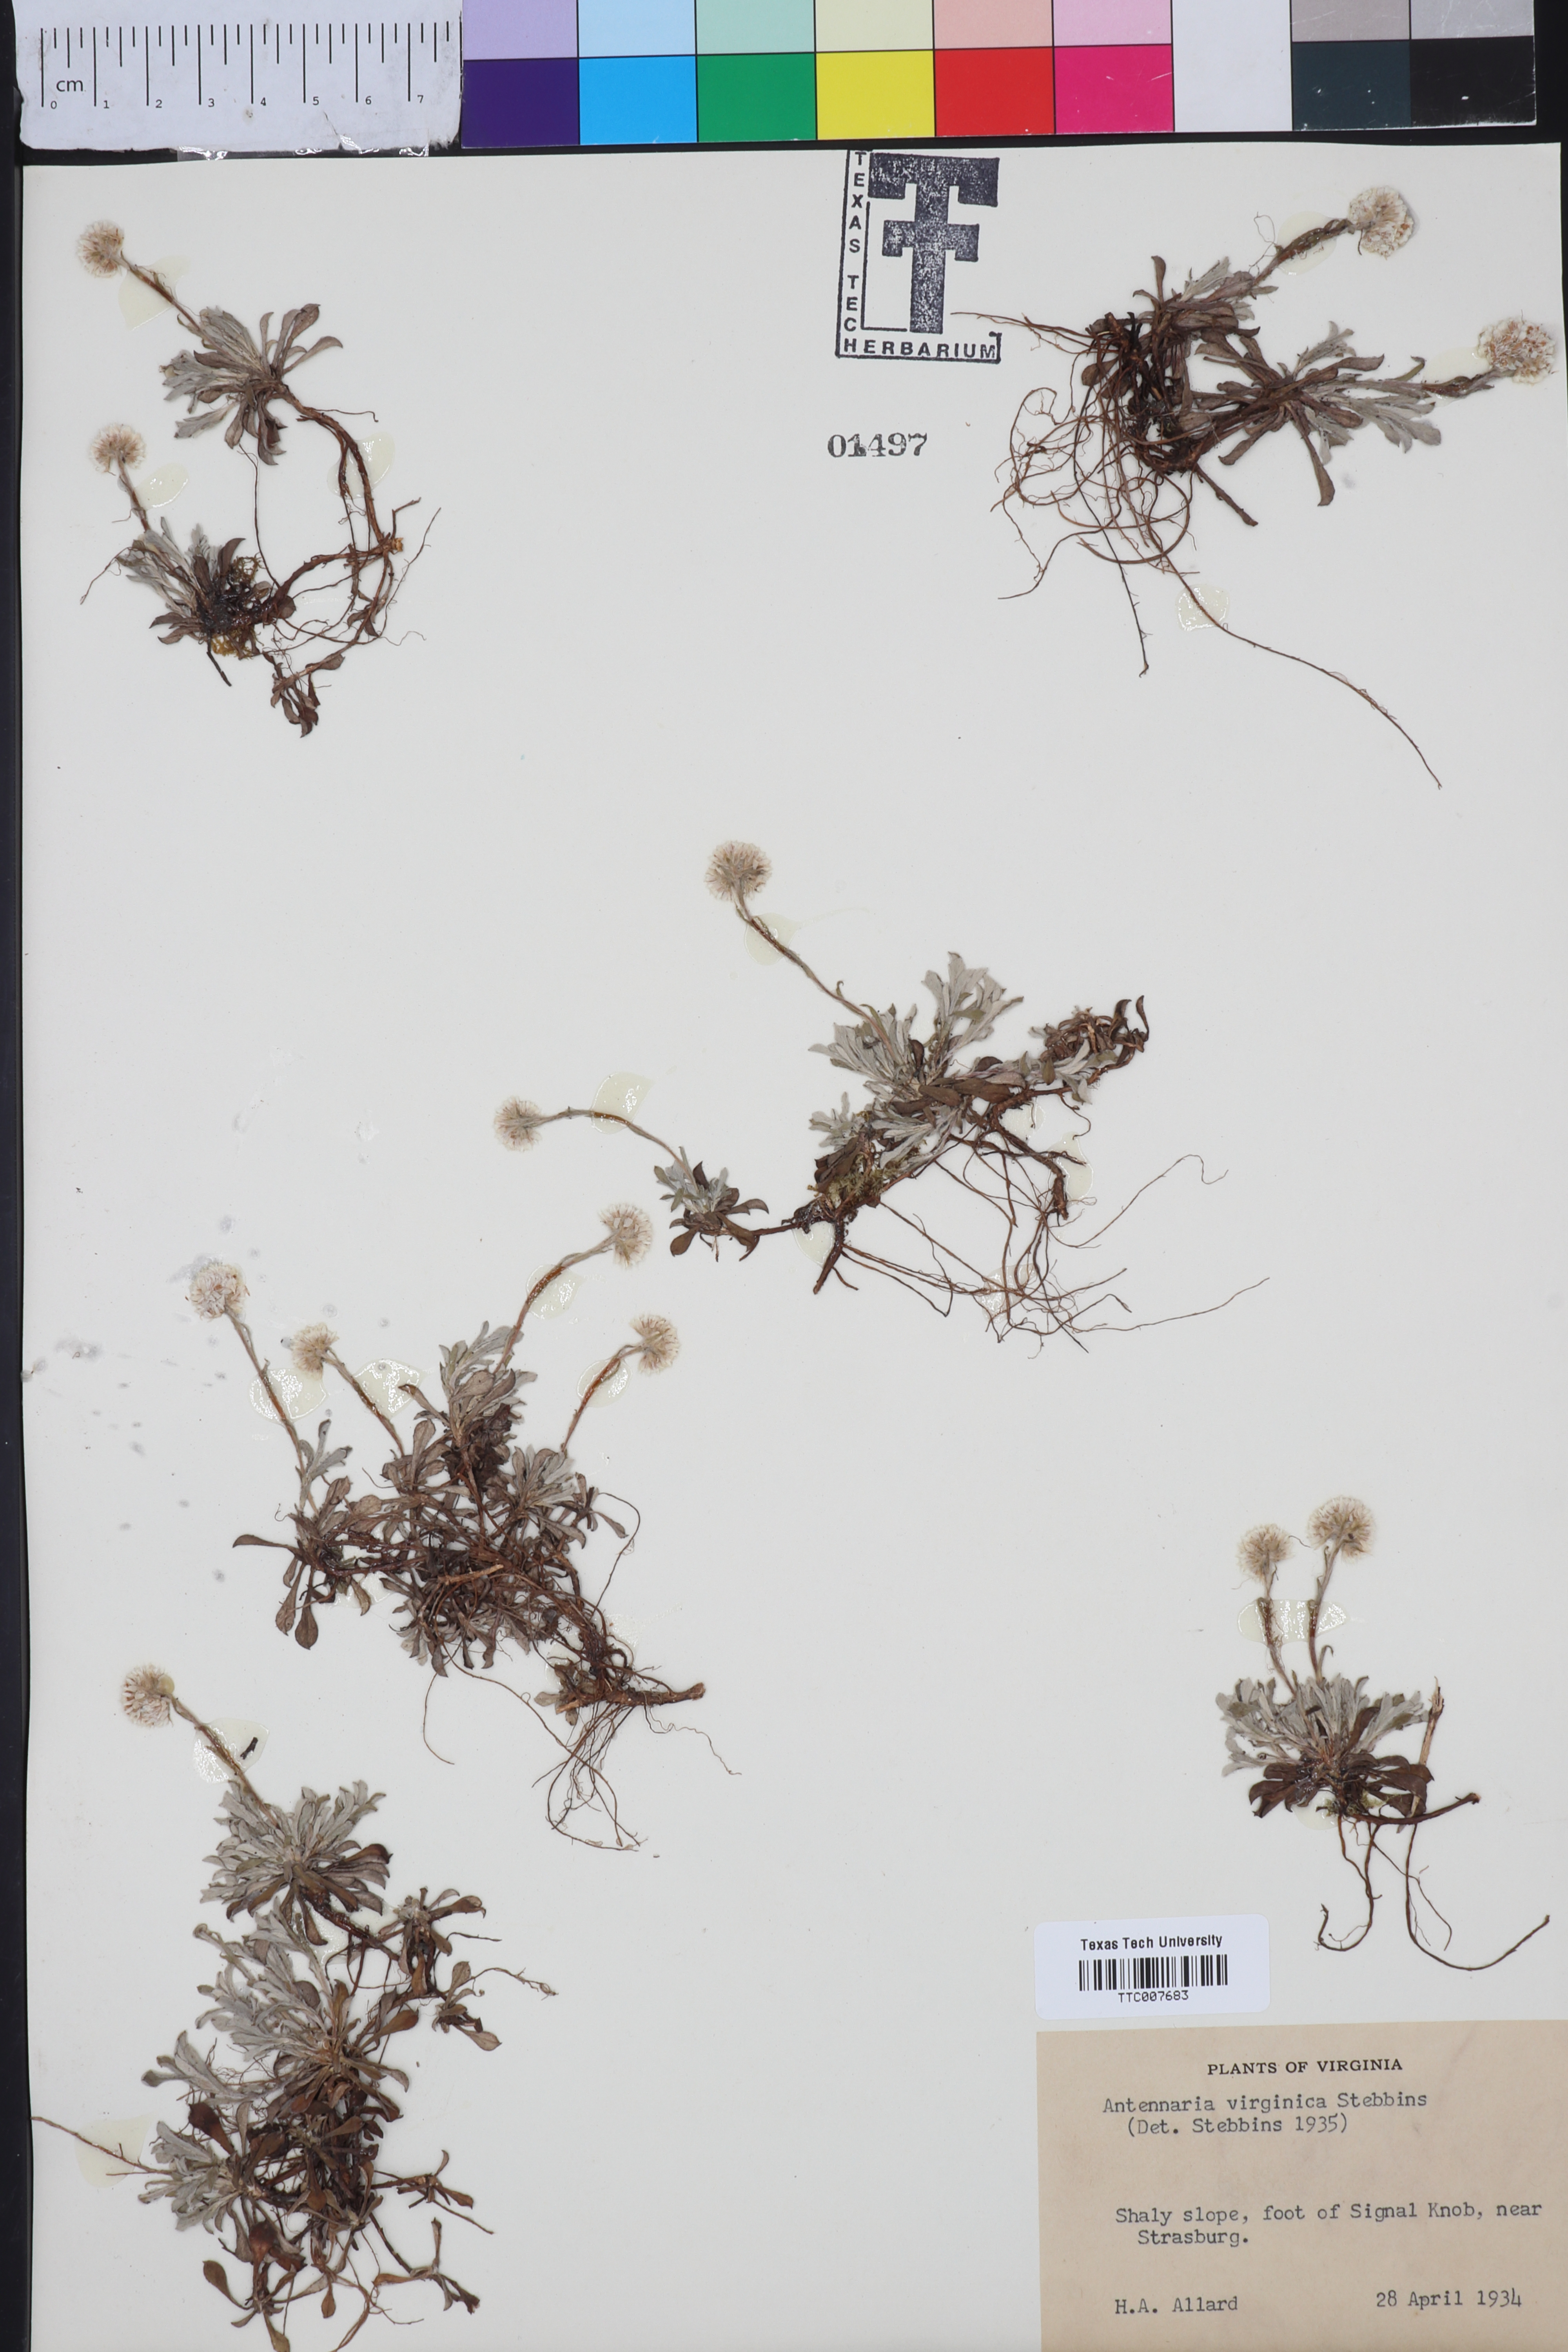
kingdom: Plantae
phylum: Tracheophyta
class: Magnoliopsida
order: Asterales
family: Asteraceae
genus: Antennaria
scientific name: Antennaria virginica
